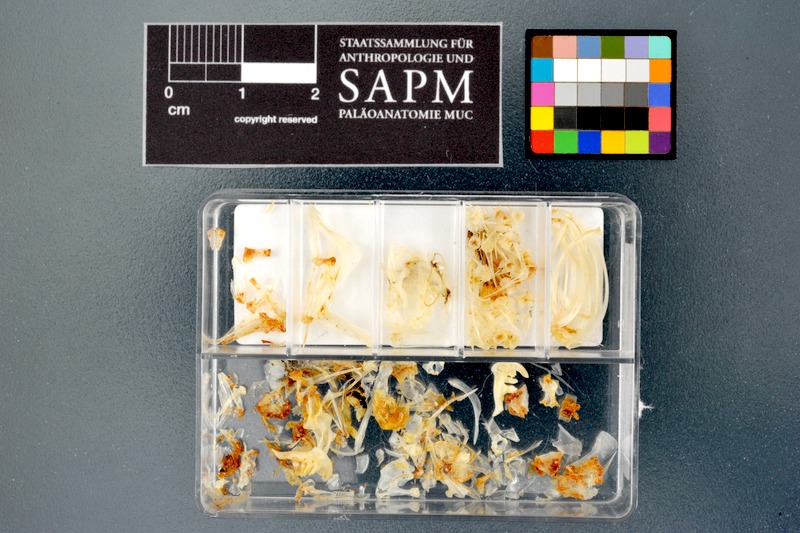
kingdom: Animalia
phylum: Chordata
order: Cypriniformes
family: Cyprinidae
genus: Enteromius
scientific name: Enteromius perince
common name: Three spot barb
